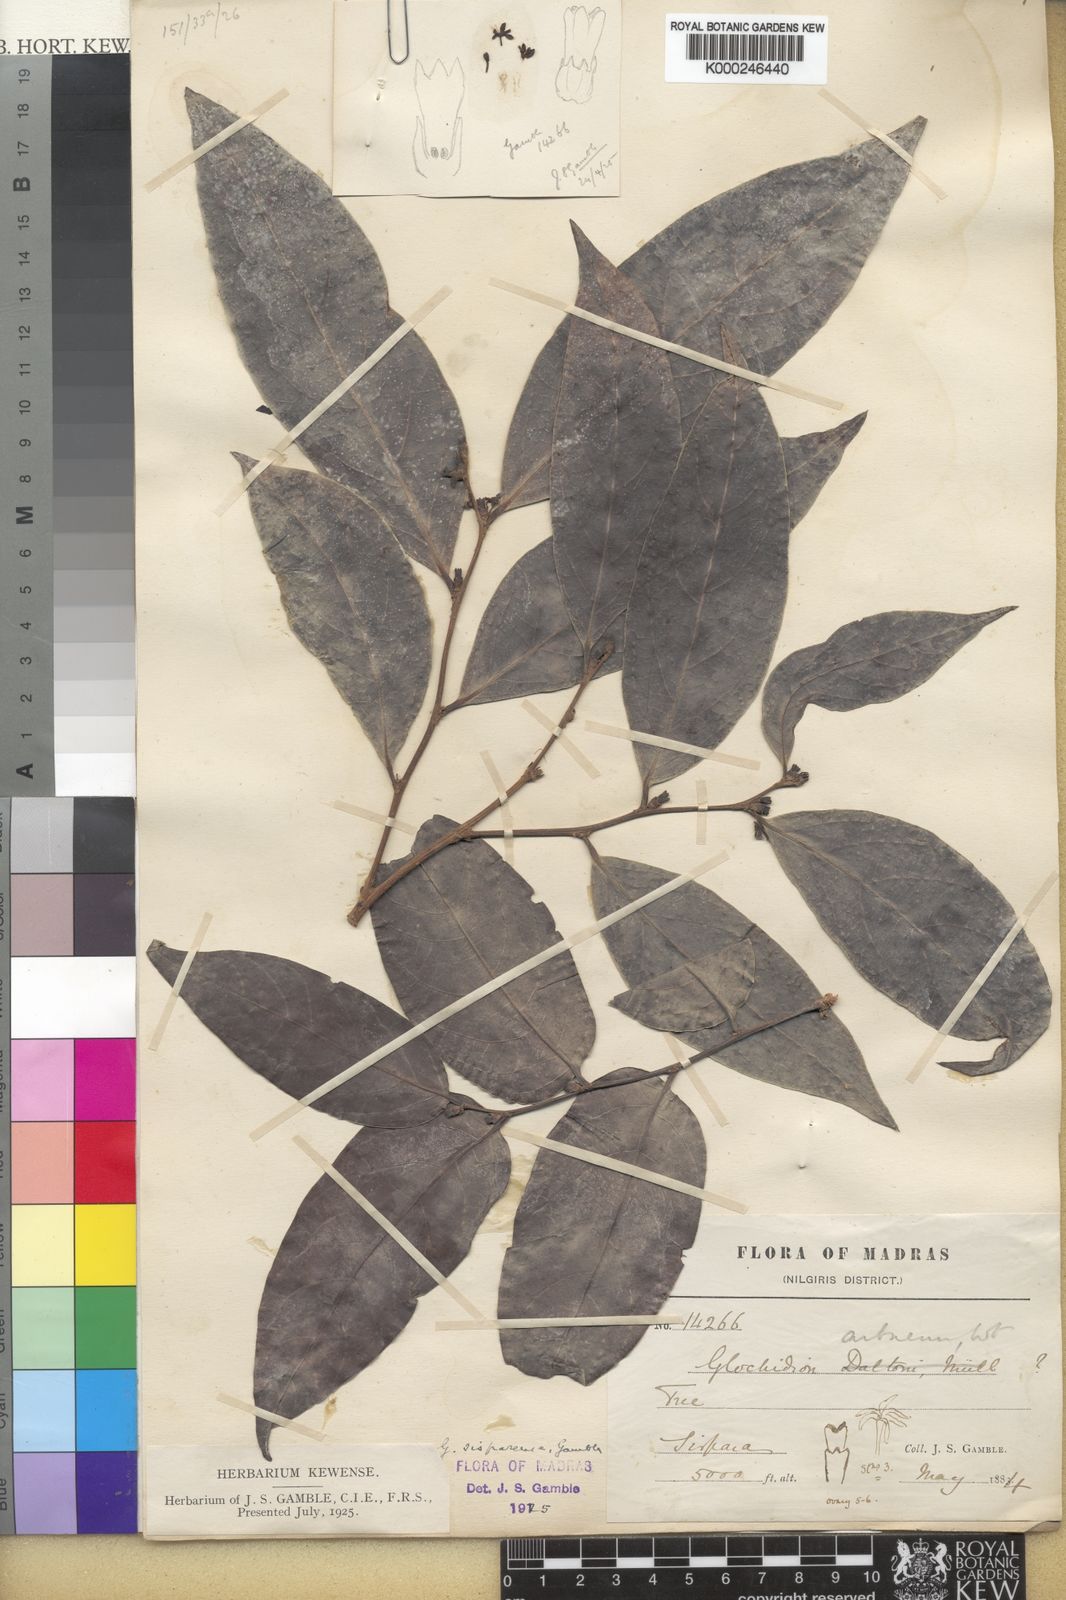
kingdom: Plantae
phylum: Tracheophyta
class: Magnoliopsida
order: Malpighiales
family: Phyllanthaceae
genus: Glochidion
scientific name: Glochidion candolleanum
